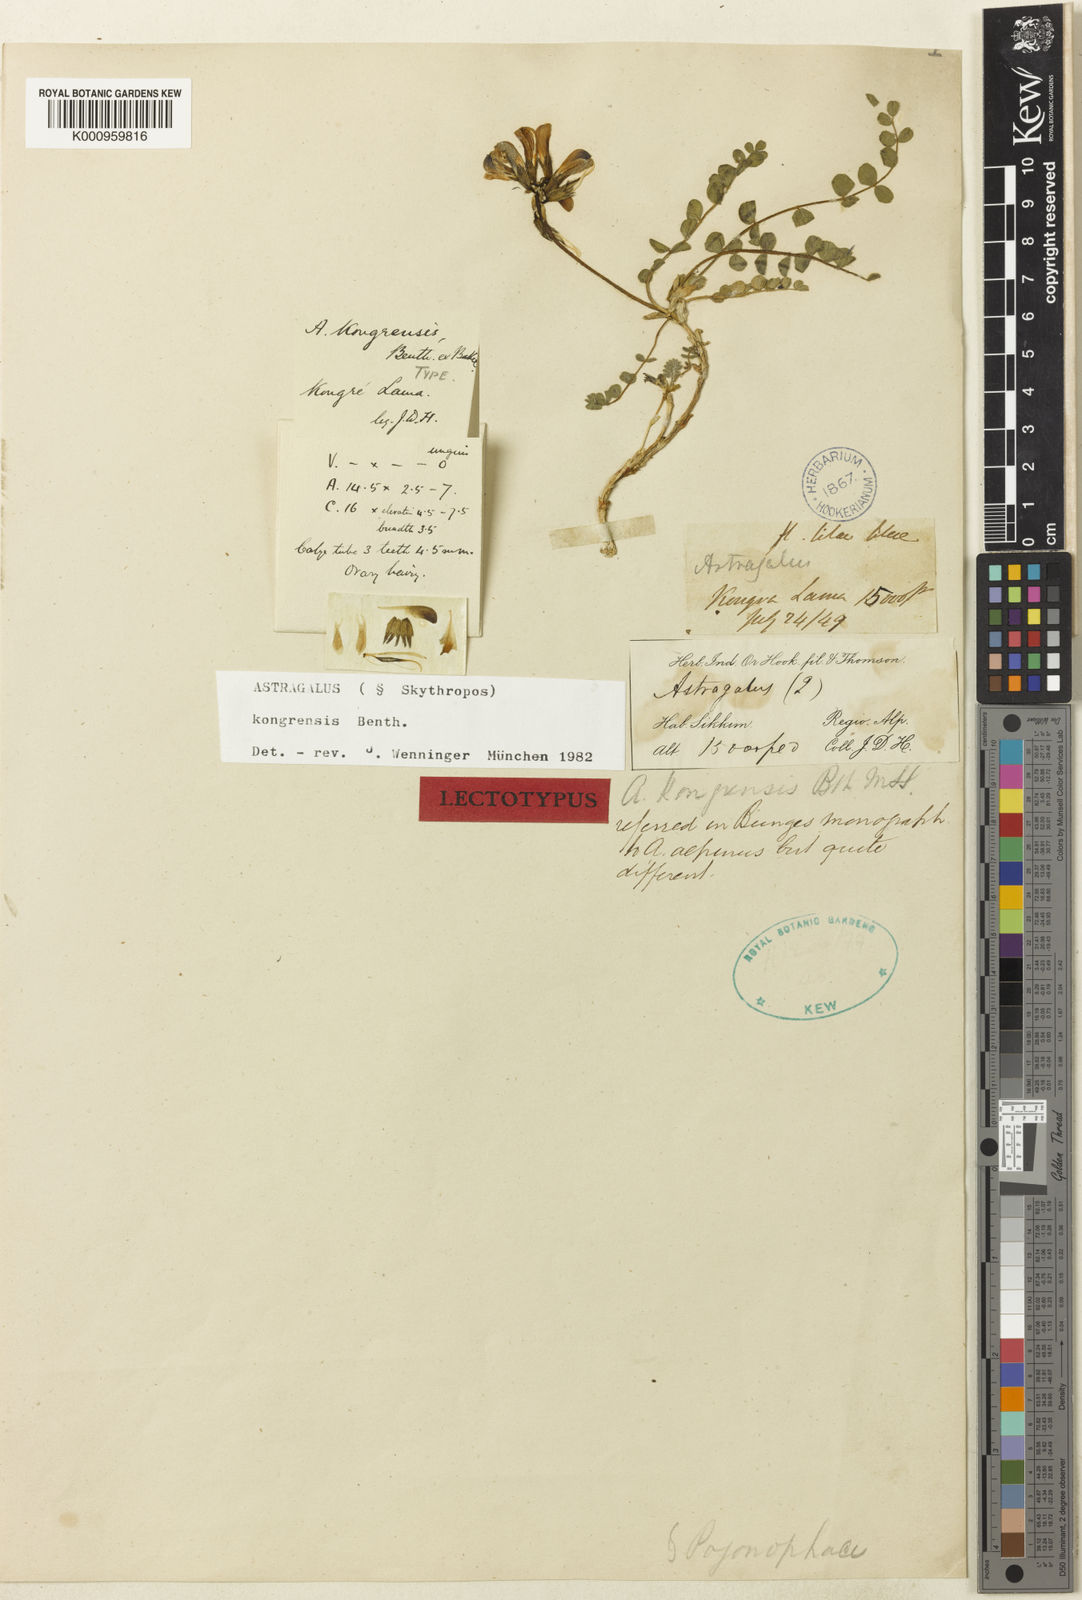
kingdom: Plantae
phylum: Tracheophyta
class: Magnoliopsida
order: Fabales
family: Fabaceae
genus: Astragalus
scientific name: Astragalus
